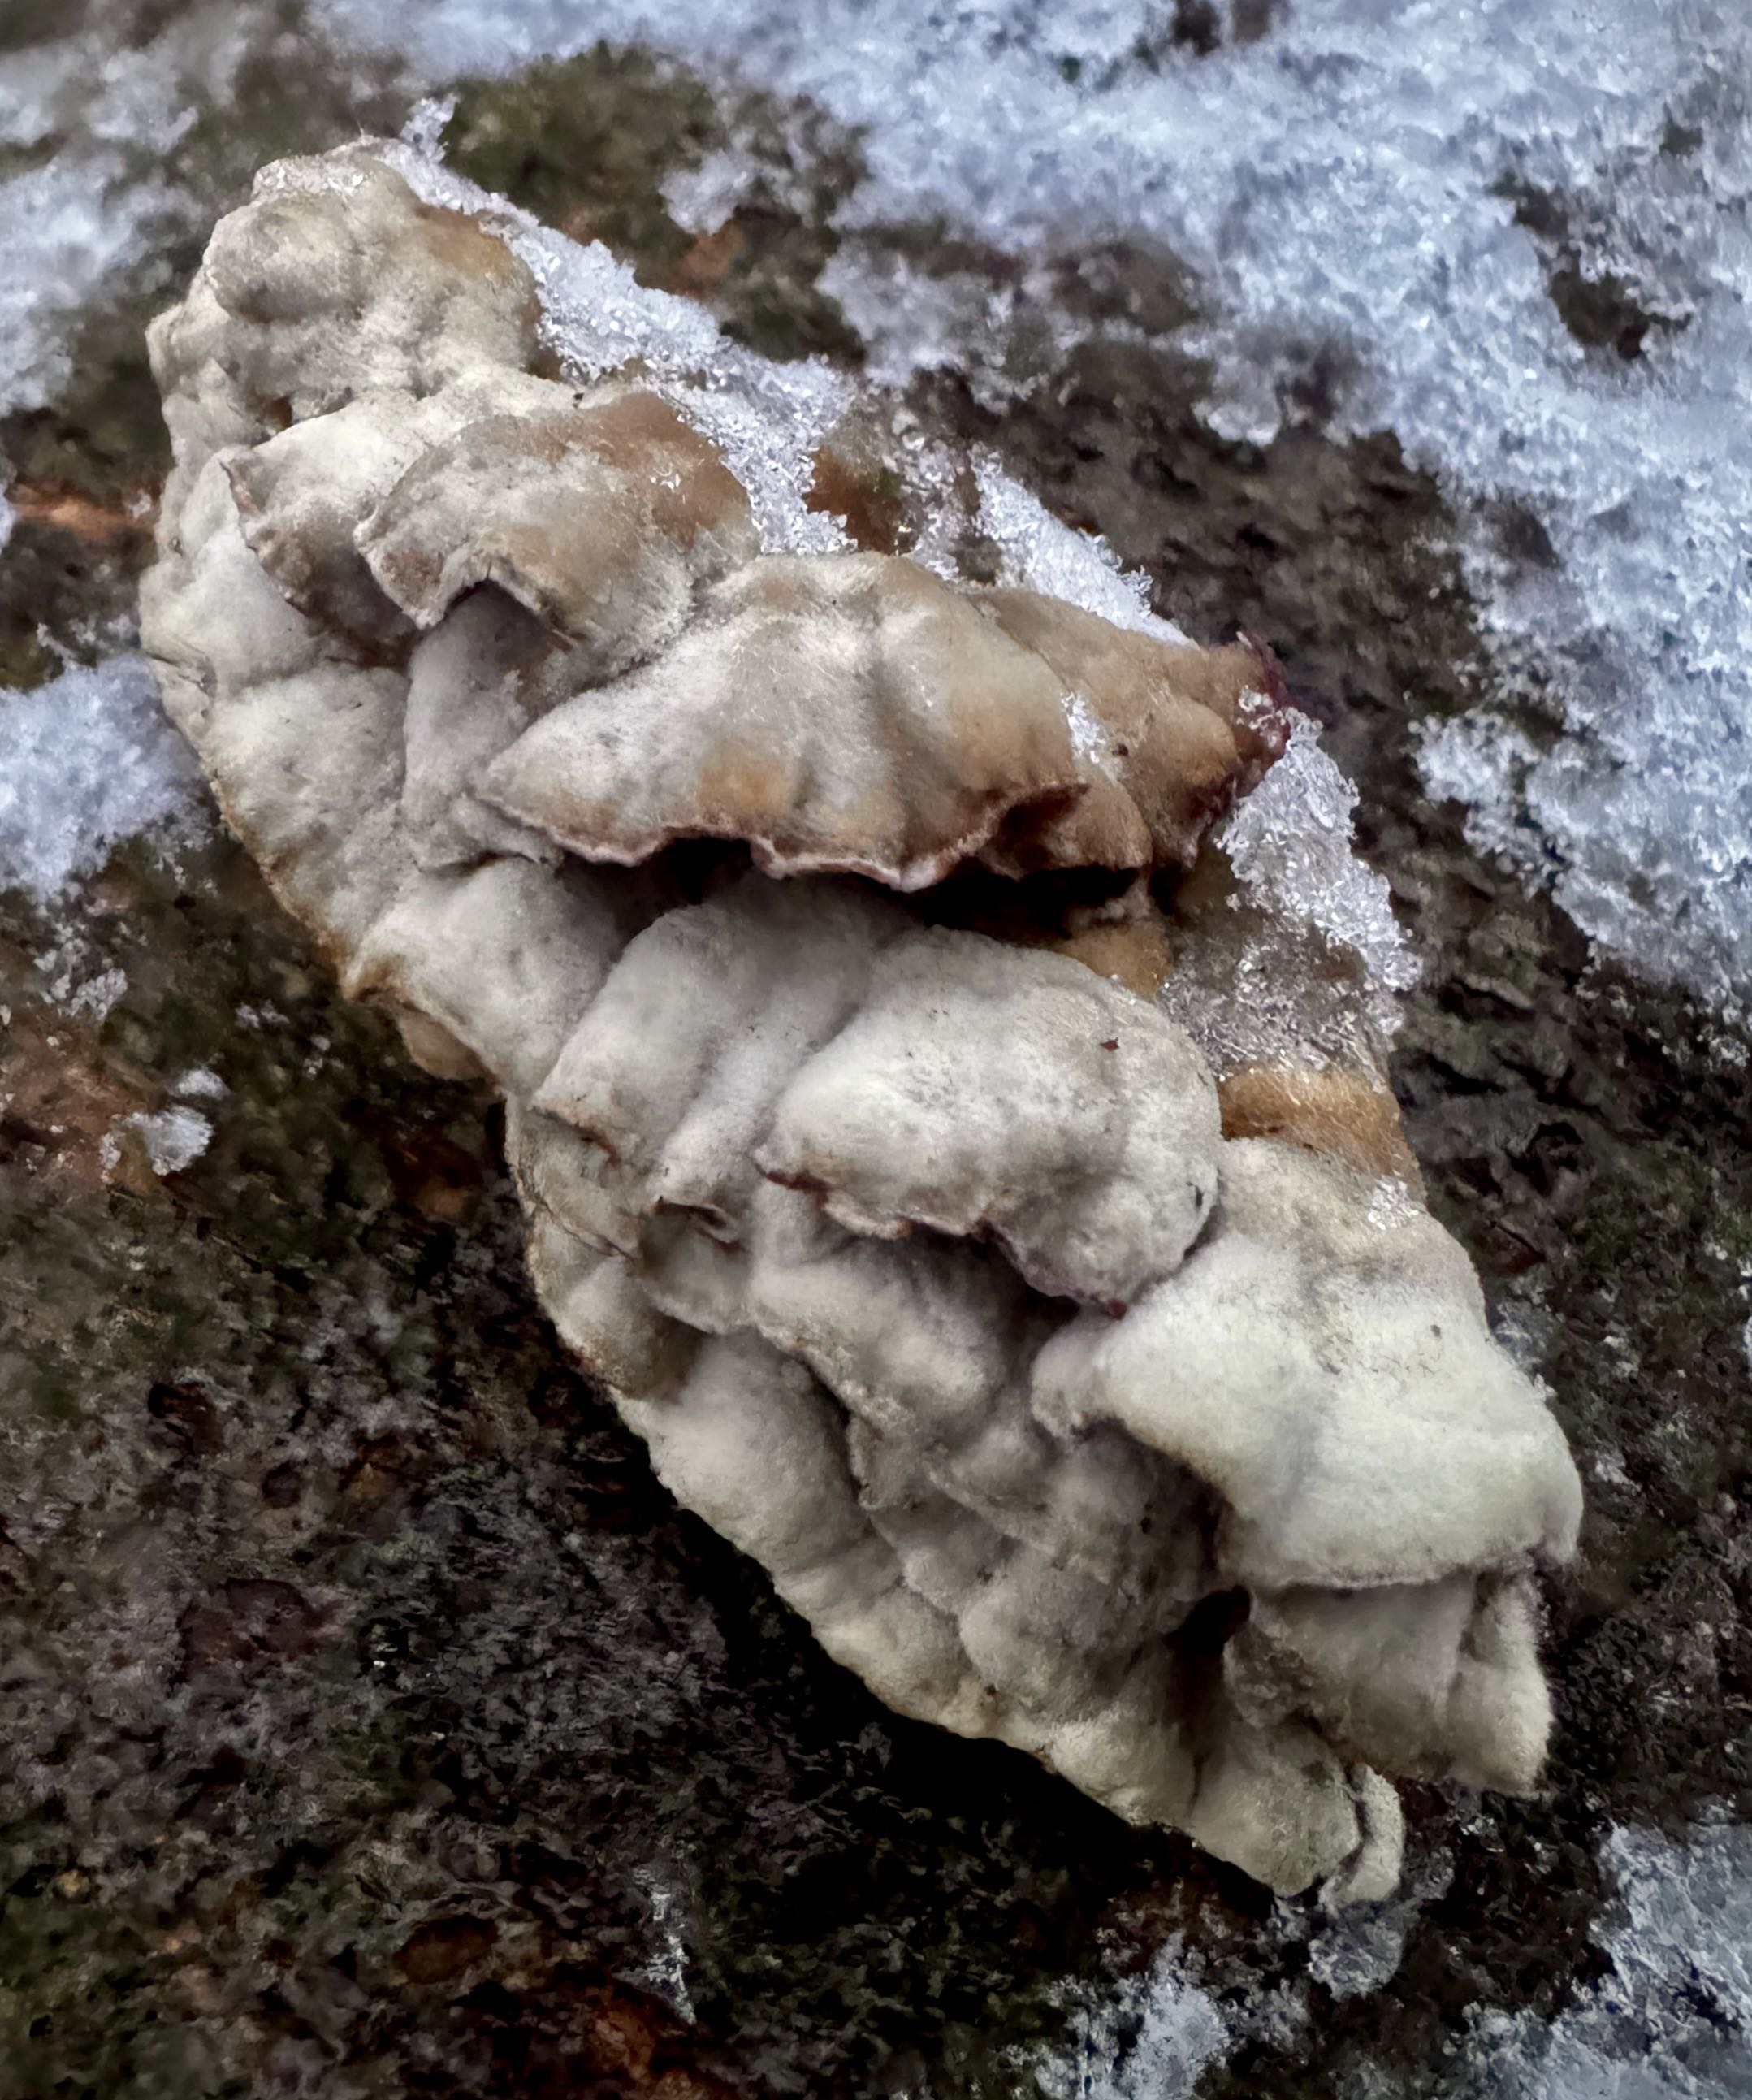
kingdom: Fungi
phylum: Basidiomycota
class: Agaricomycetes
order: Agaricales
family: Cyphellaceae
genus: Chondrostereum
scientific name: Chondrostereum purpureum
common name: purpurlædersvamp
